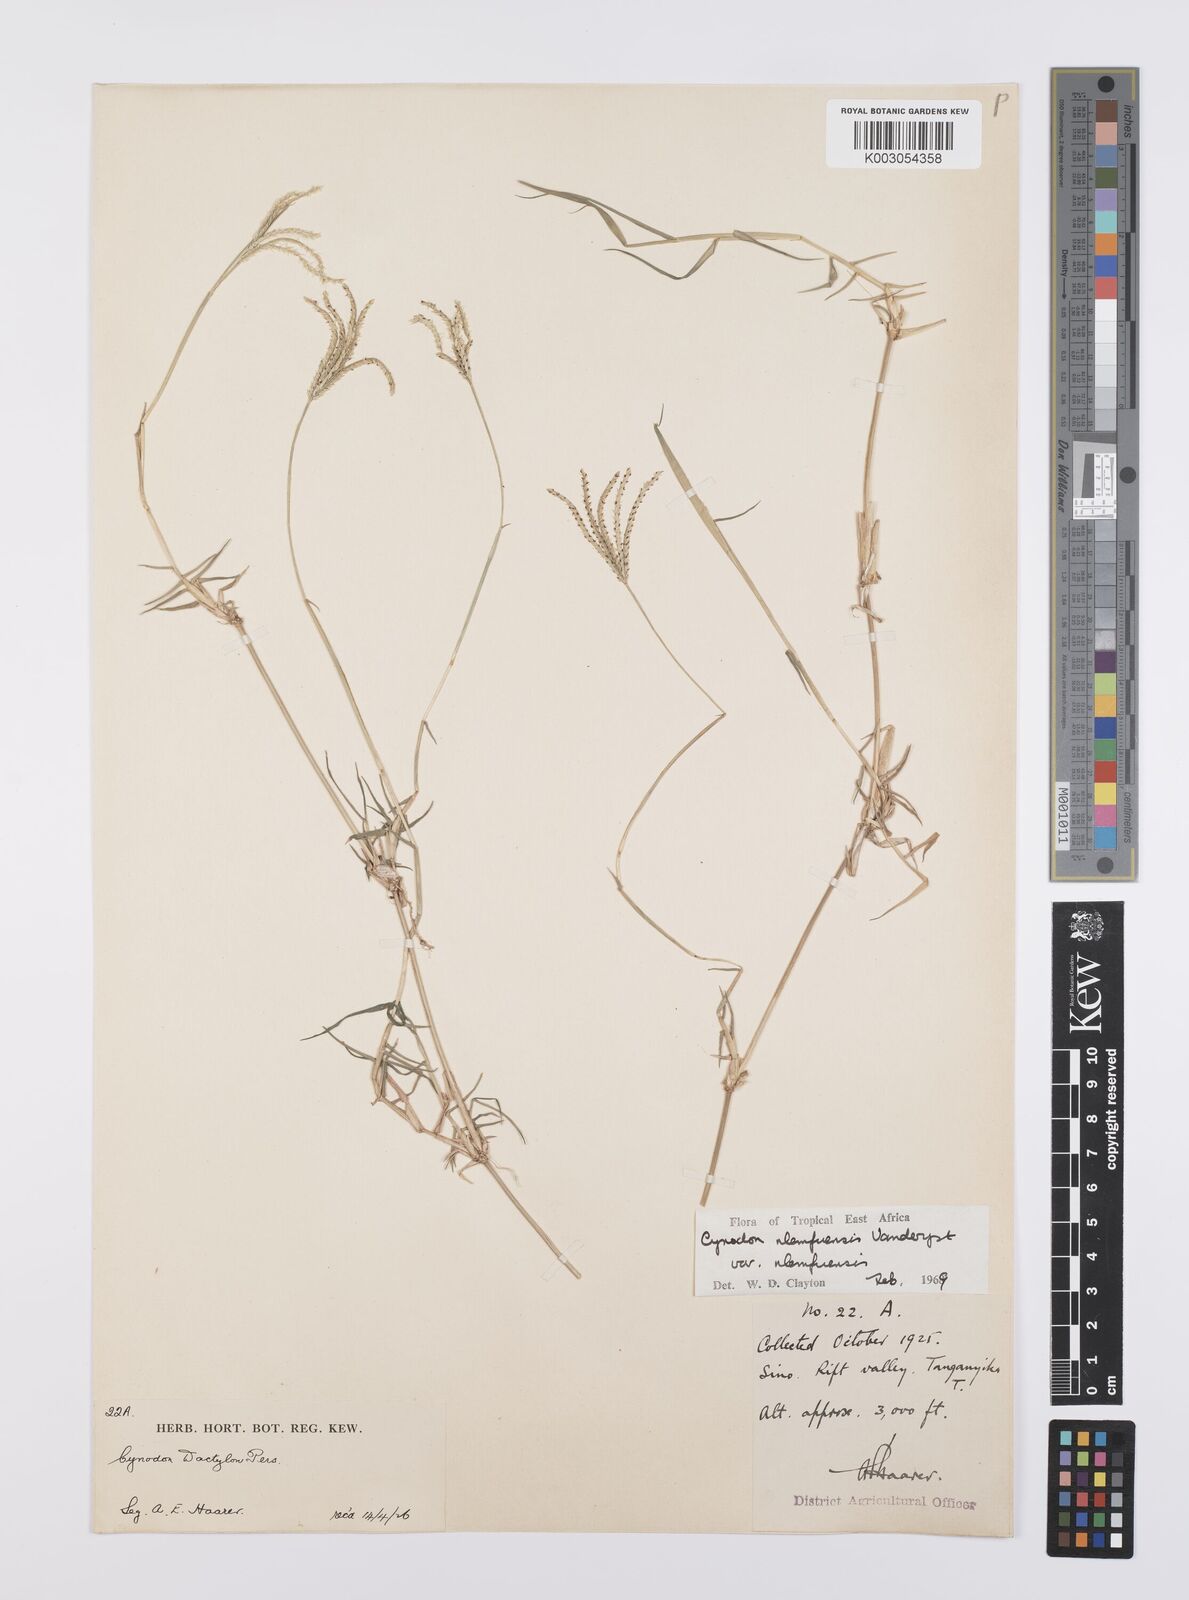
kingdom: Plantae
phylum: Tracheophyta
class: Liliopsida
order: Poales
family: Poaceae
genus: Cynodon
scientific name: Cynodon nlemfuensis
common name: African bermudagrass
